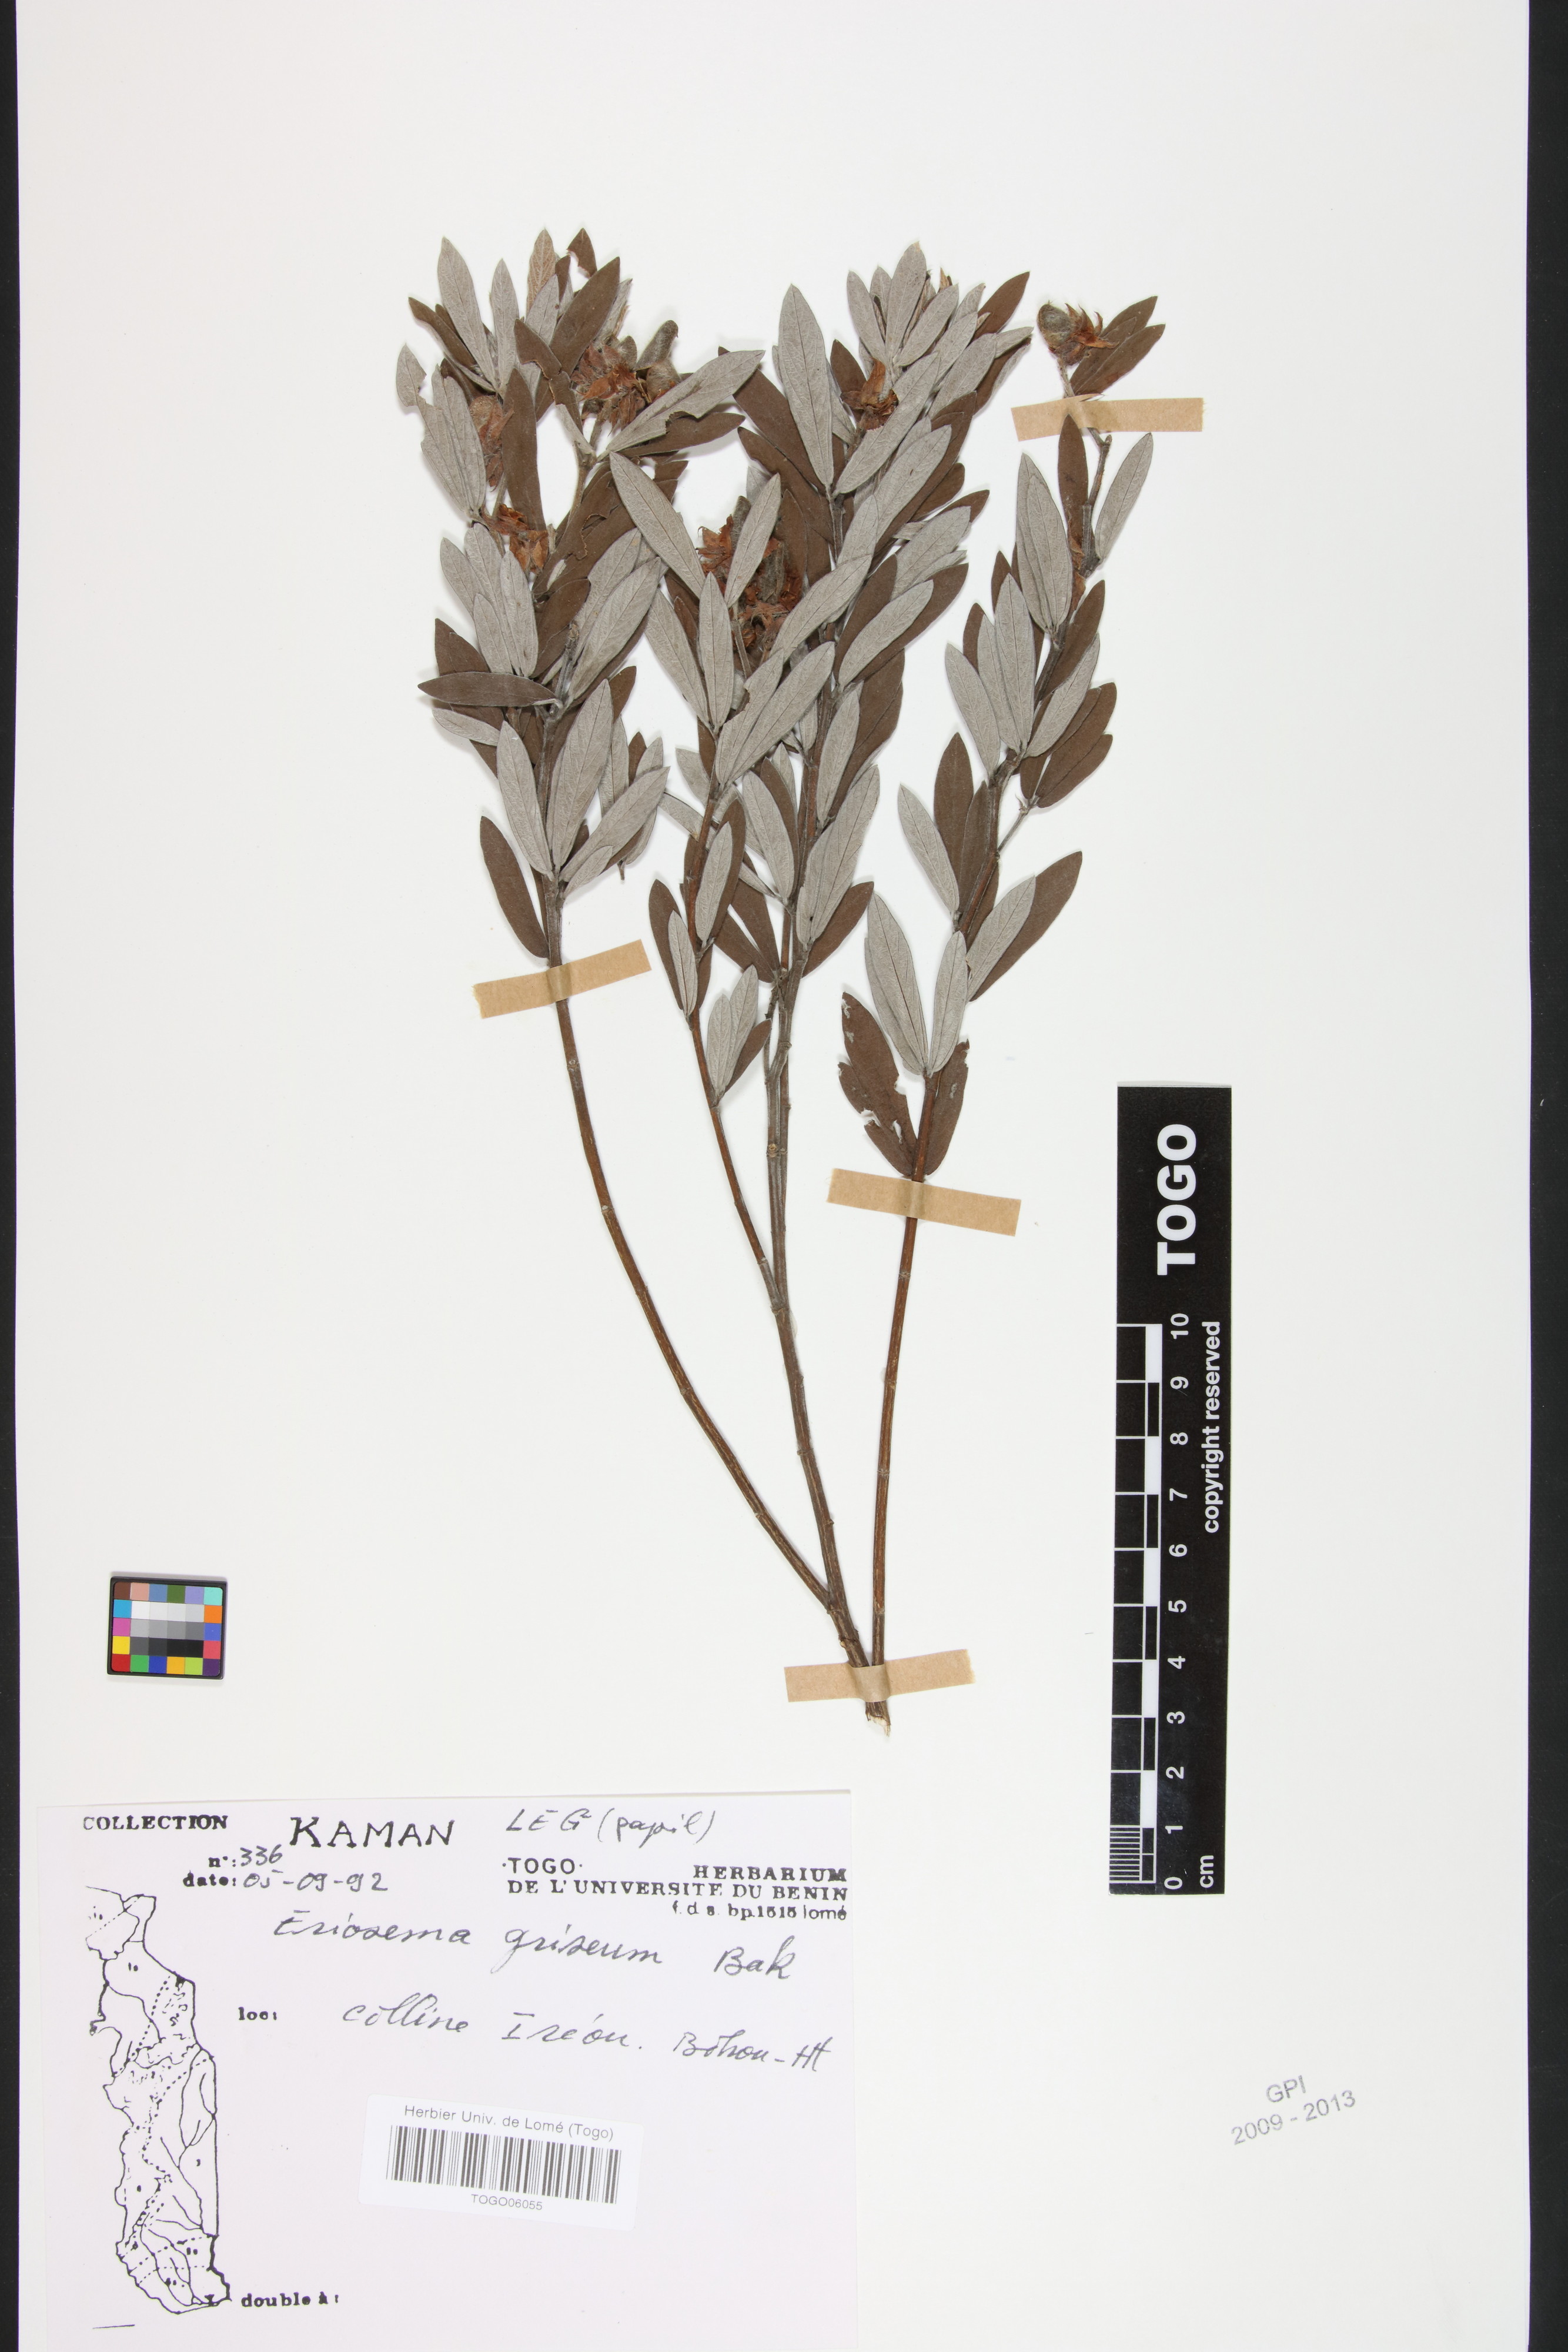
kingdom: Plantae
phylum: Tracheophyta
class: Magnoliopsida
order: Fabales
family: Fabaceae
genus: Eriosema
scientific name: Eriosema griseum
